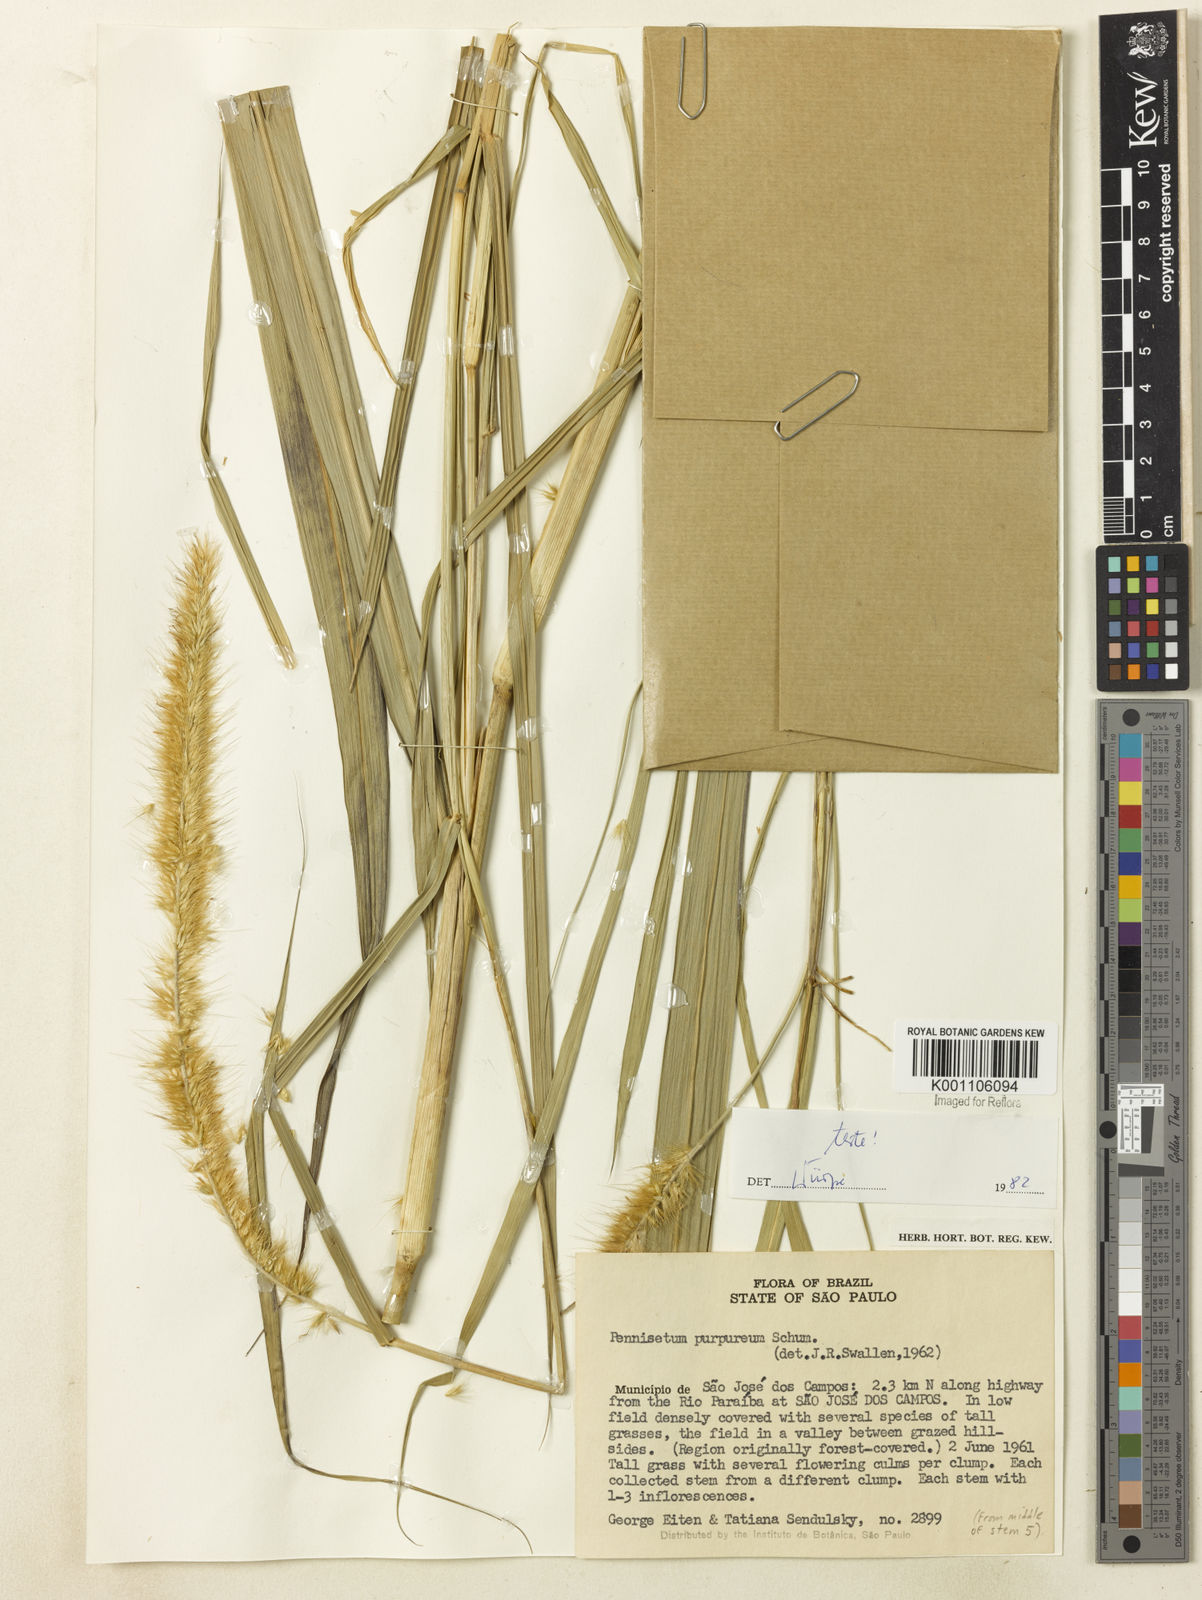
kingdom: Plantae
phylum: Tracheophyta
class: Liliopsida
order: Poales
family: Poaceae
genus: Cenchrus
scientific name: Cenchrus purpureus
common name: Elephant grass
